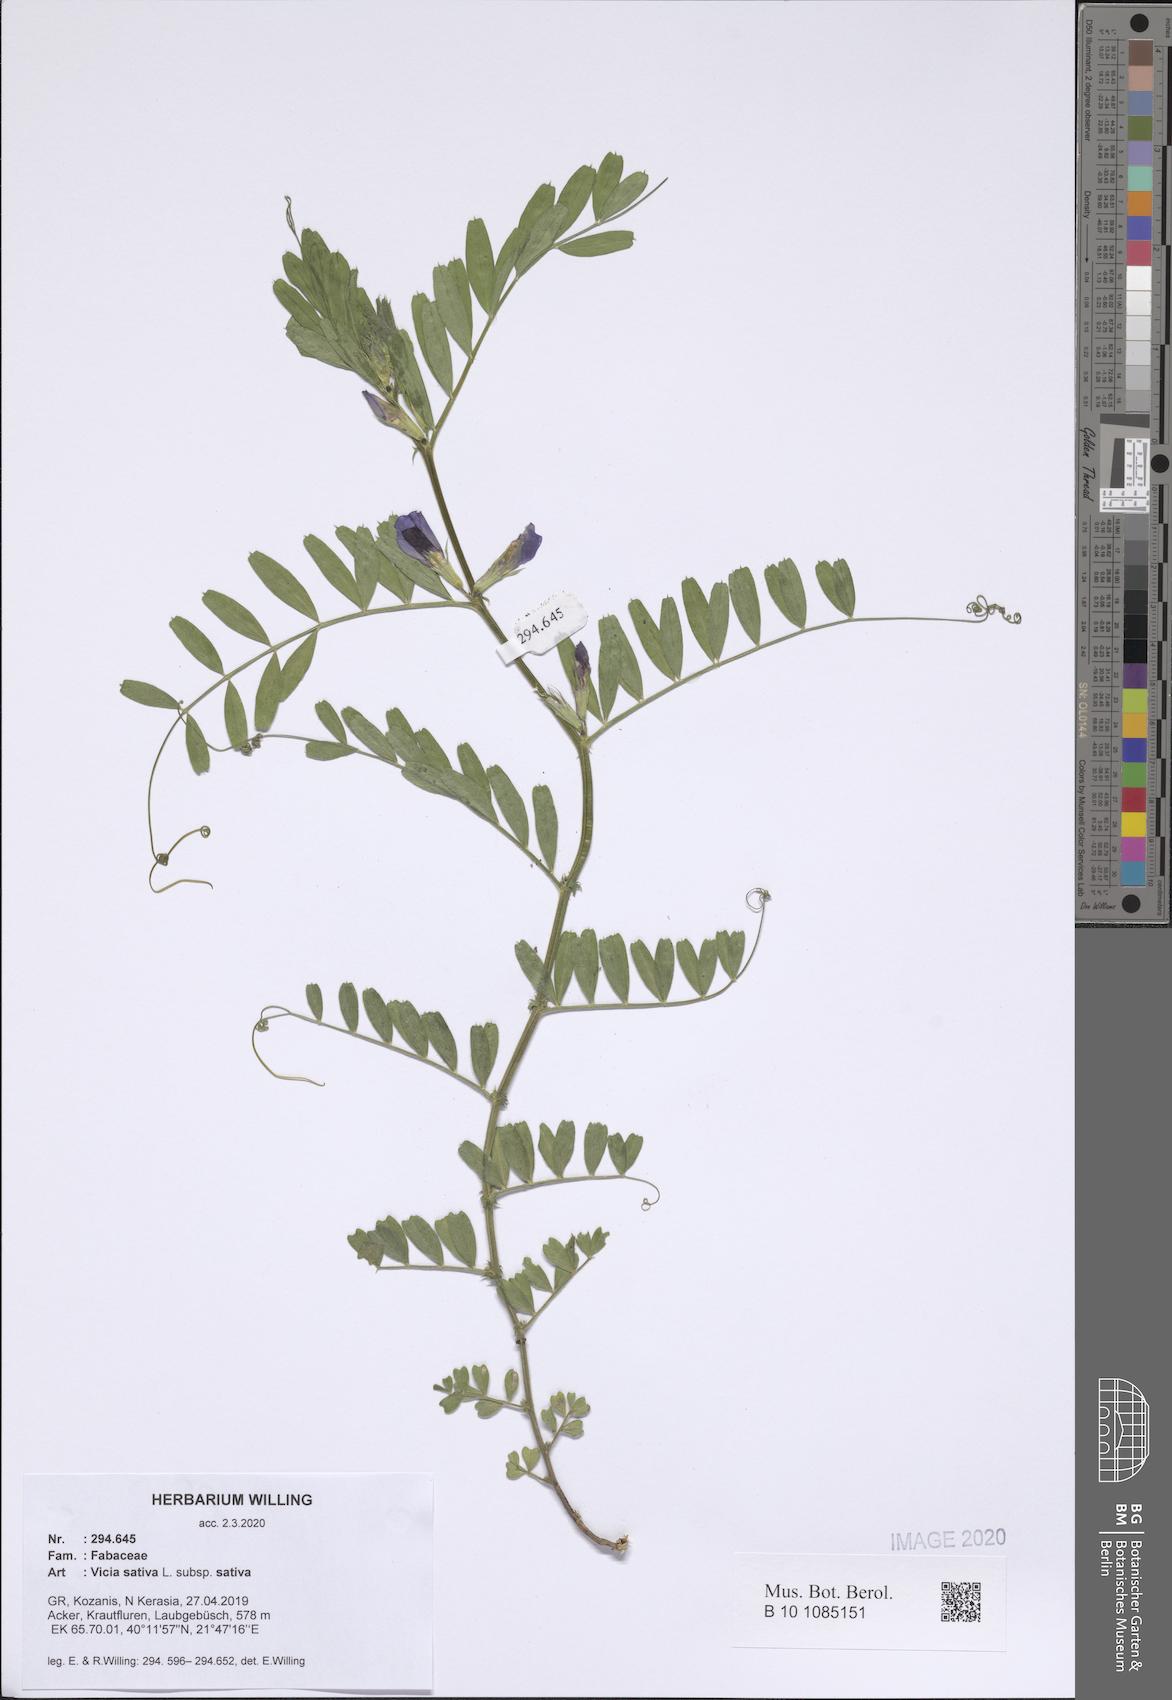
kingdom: Plantae
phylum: Tracheophyta
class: Magnoliopsida
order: Fabales
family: Fabaceae
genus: Vicia
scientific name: Vicia sativa
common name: Garden vetch
